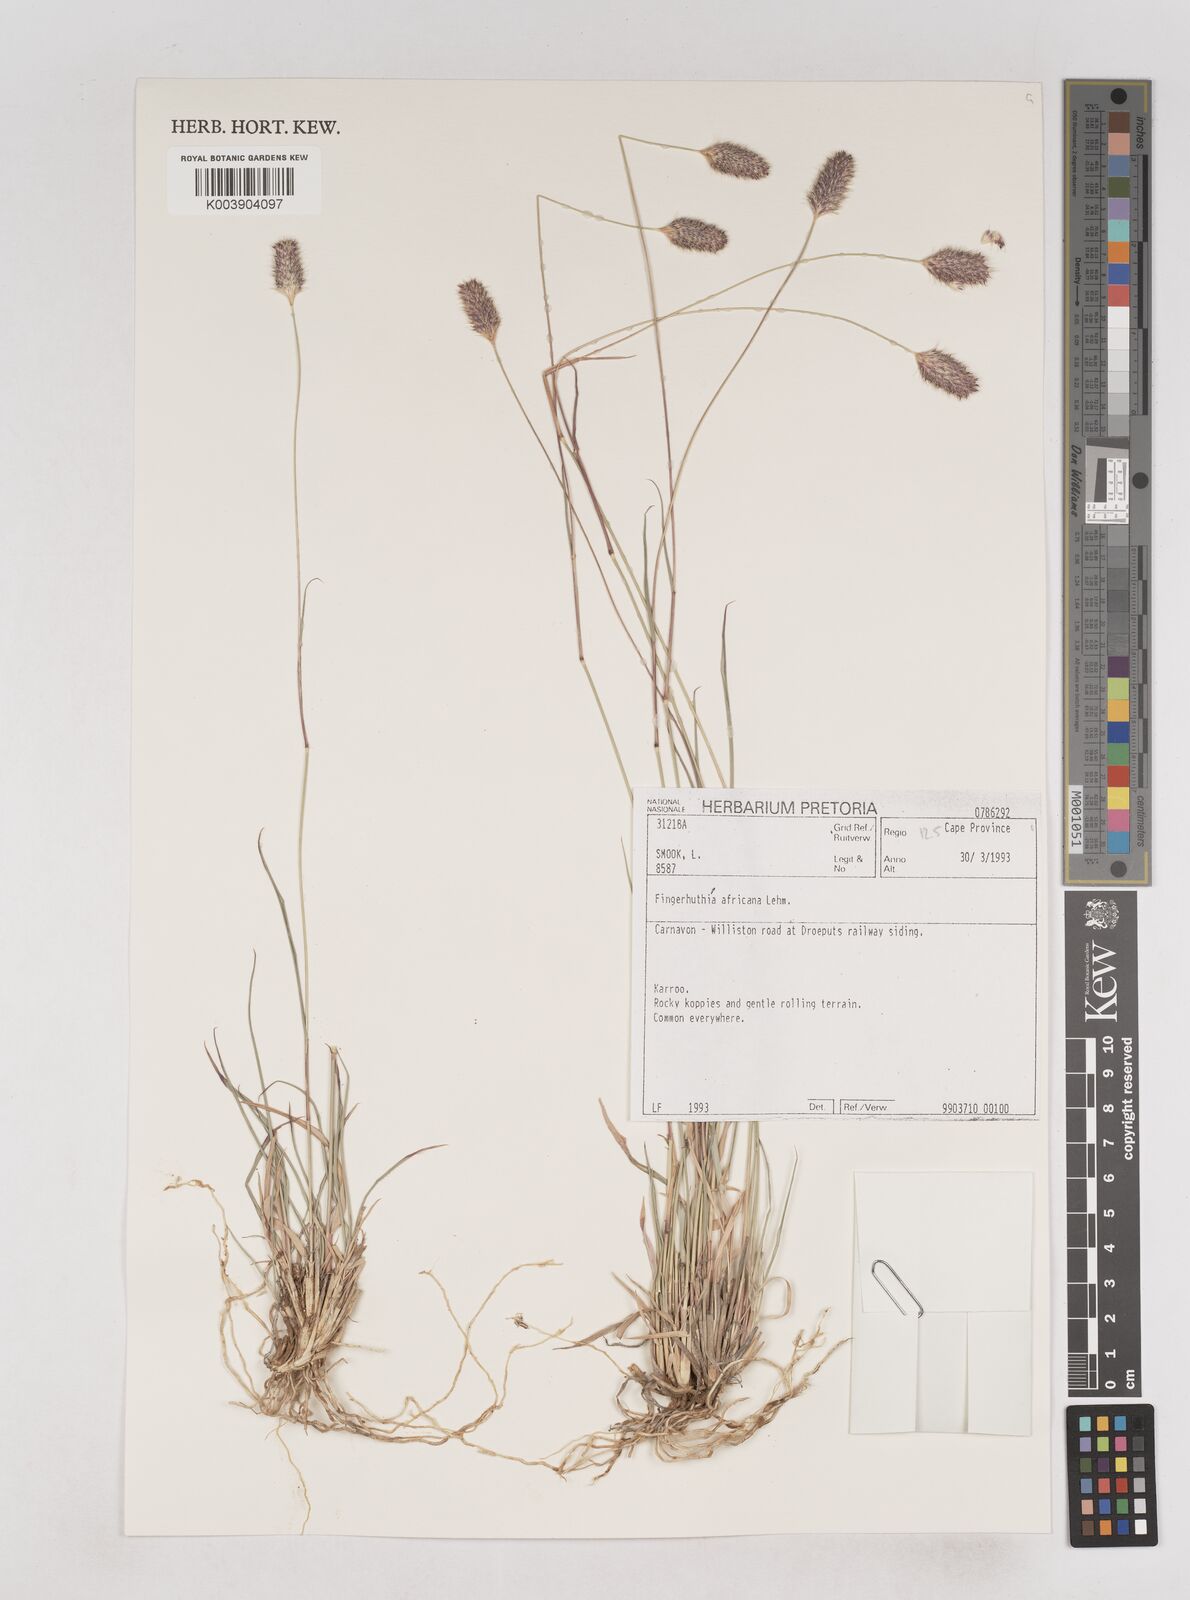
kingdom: Plantae
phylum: Tracheophyta
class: Liliopsida
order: Poales
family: Poaceae
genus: Fingerhuthia
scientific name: Fingerhuthia africana
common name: Zulu fescue
